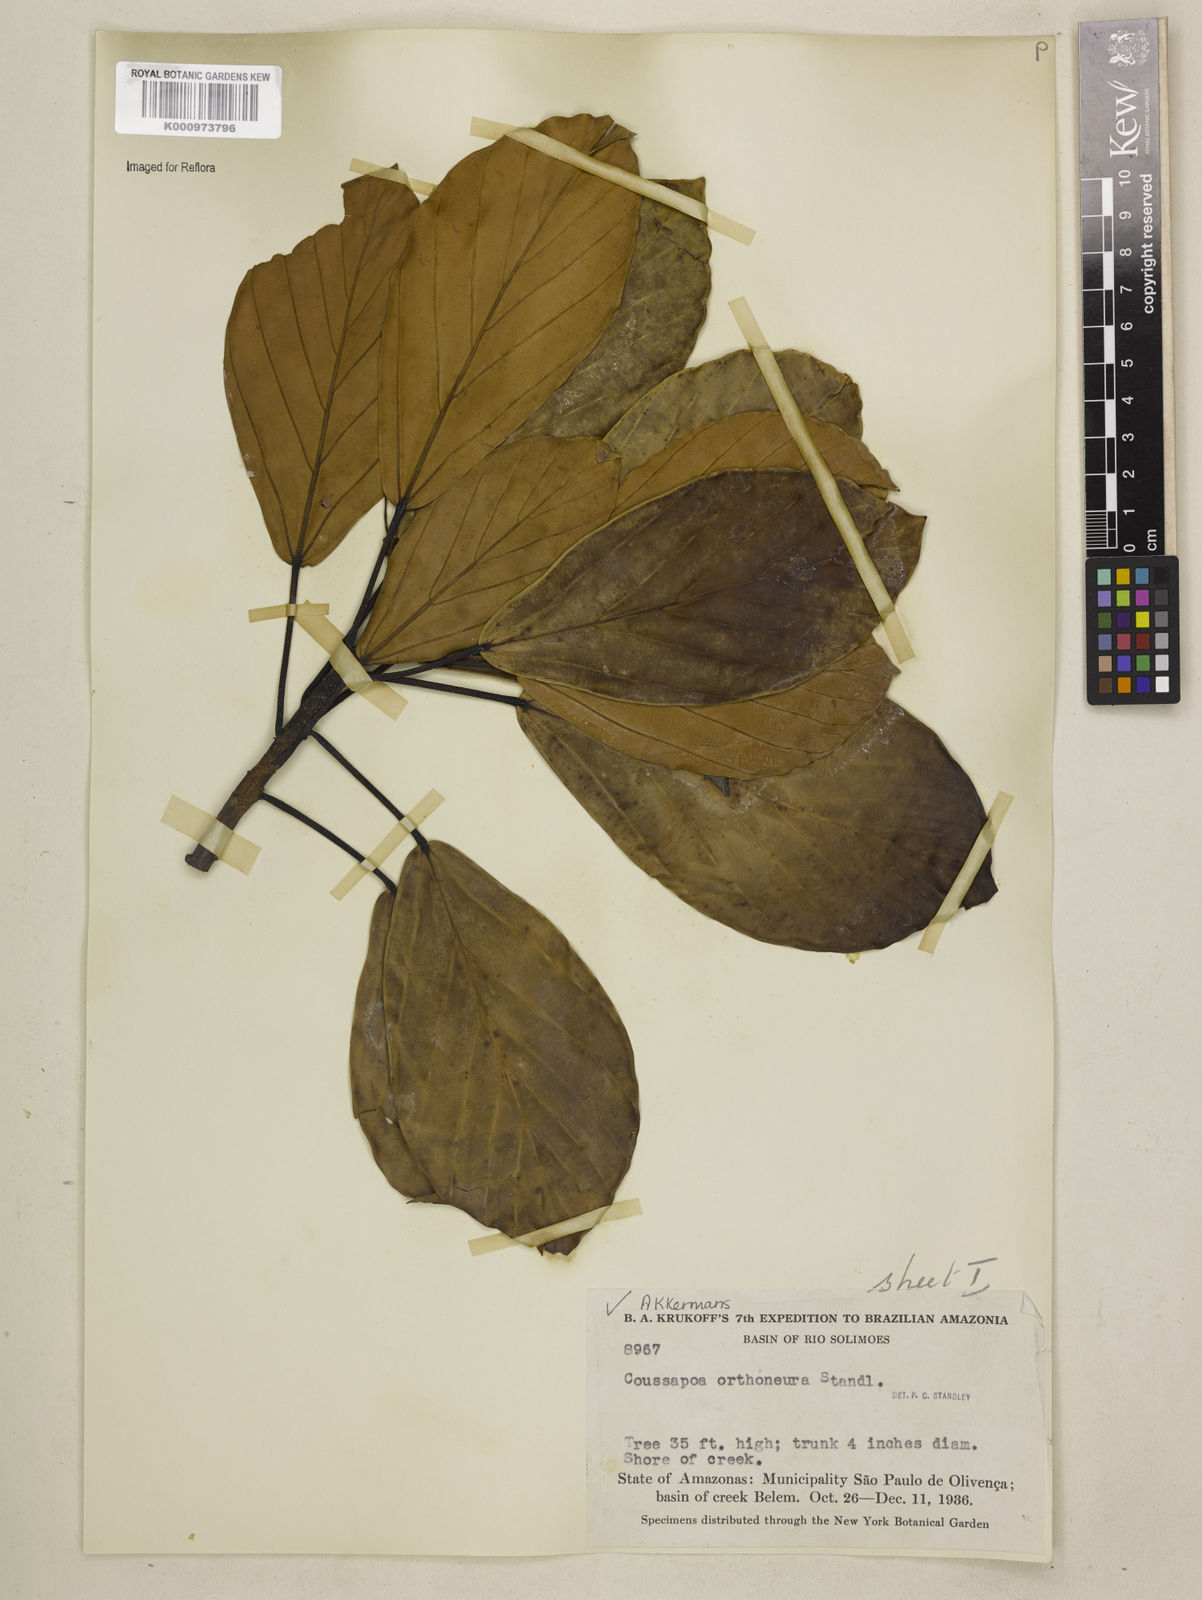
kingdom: Plantae
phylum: Tracheophyta
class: Magnoliopsida
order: Rosales
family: Urticaceae
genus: Coussapoa
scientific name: Coussapoa orthoneura
